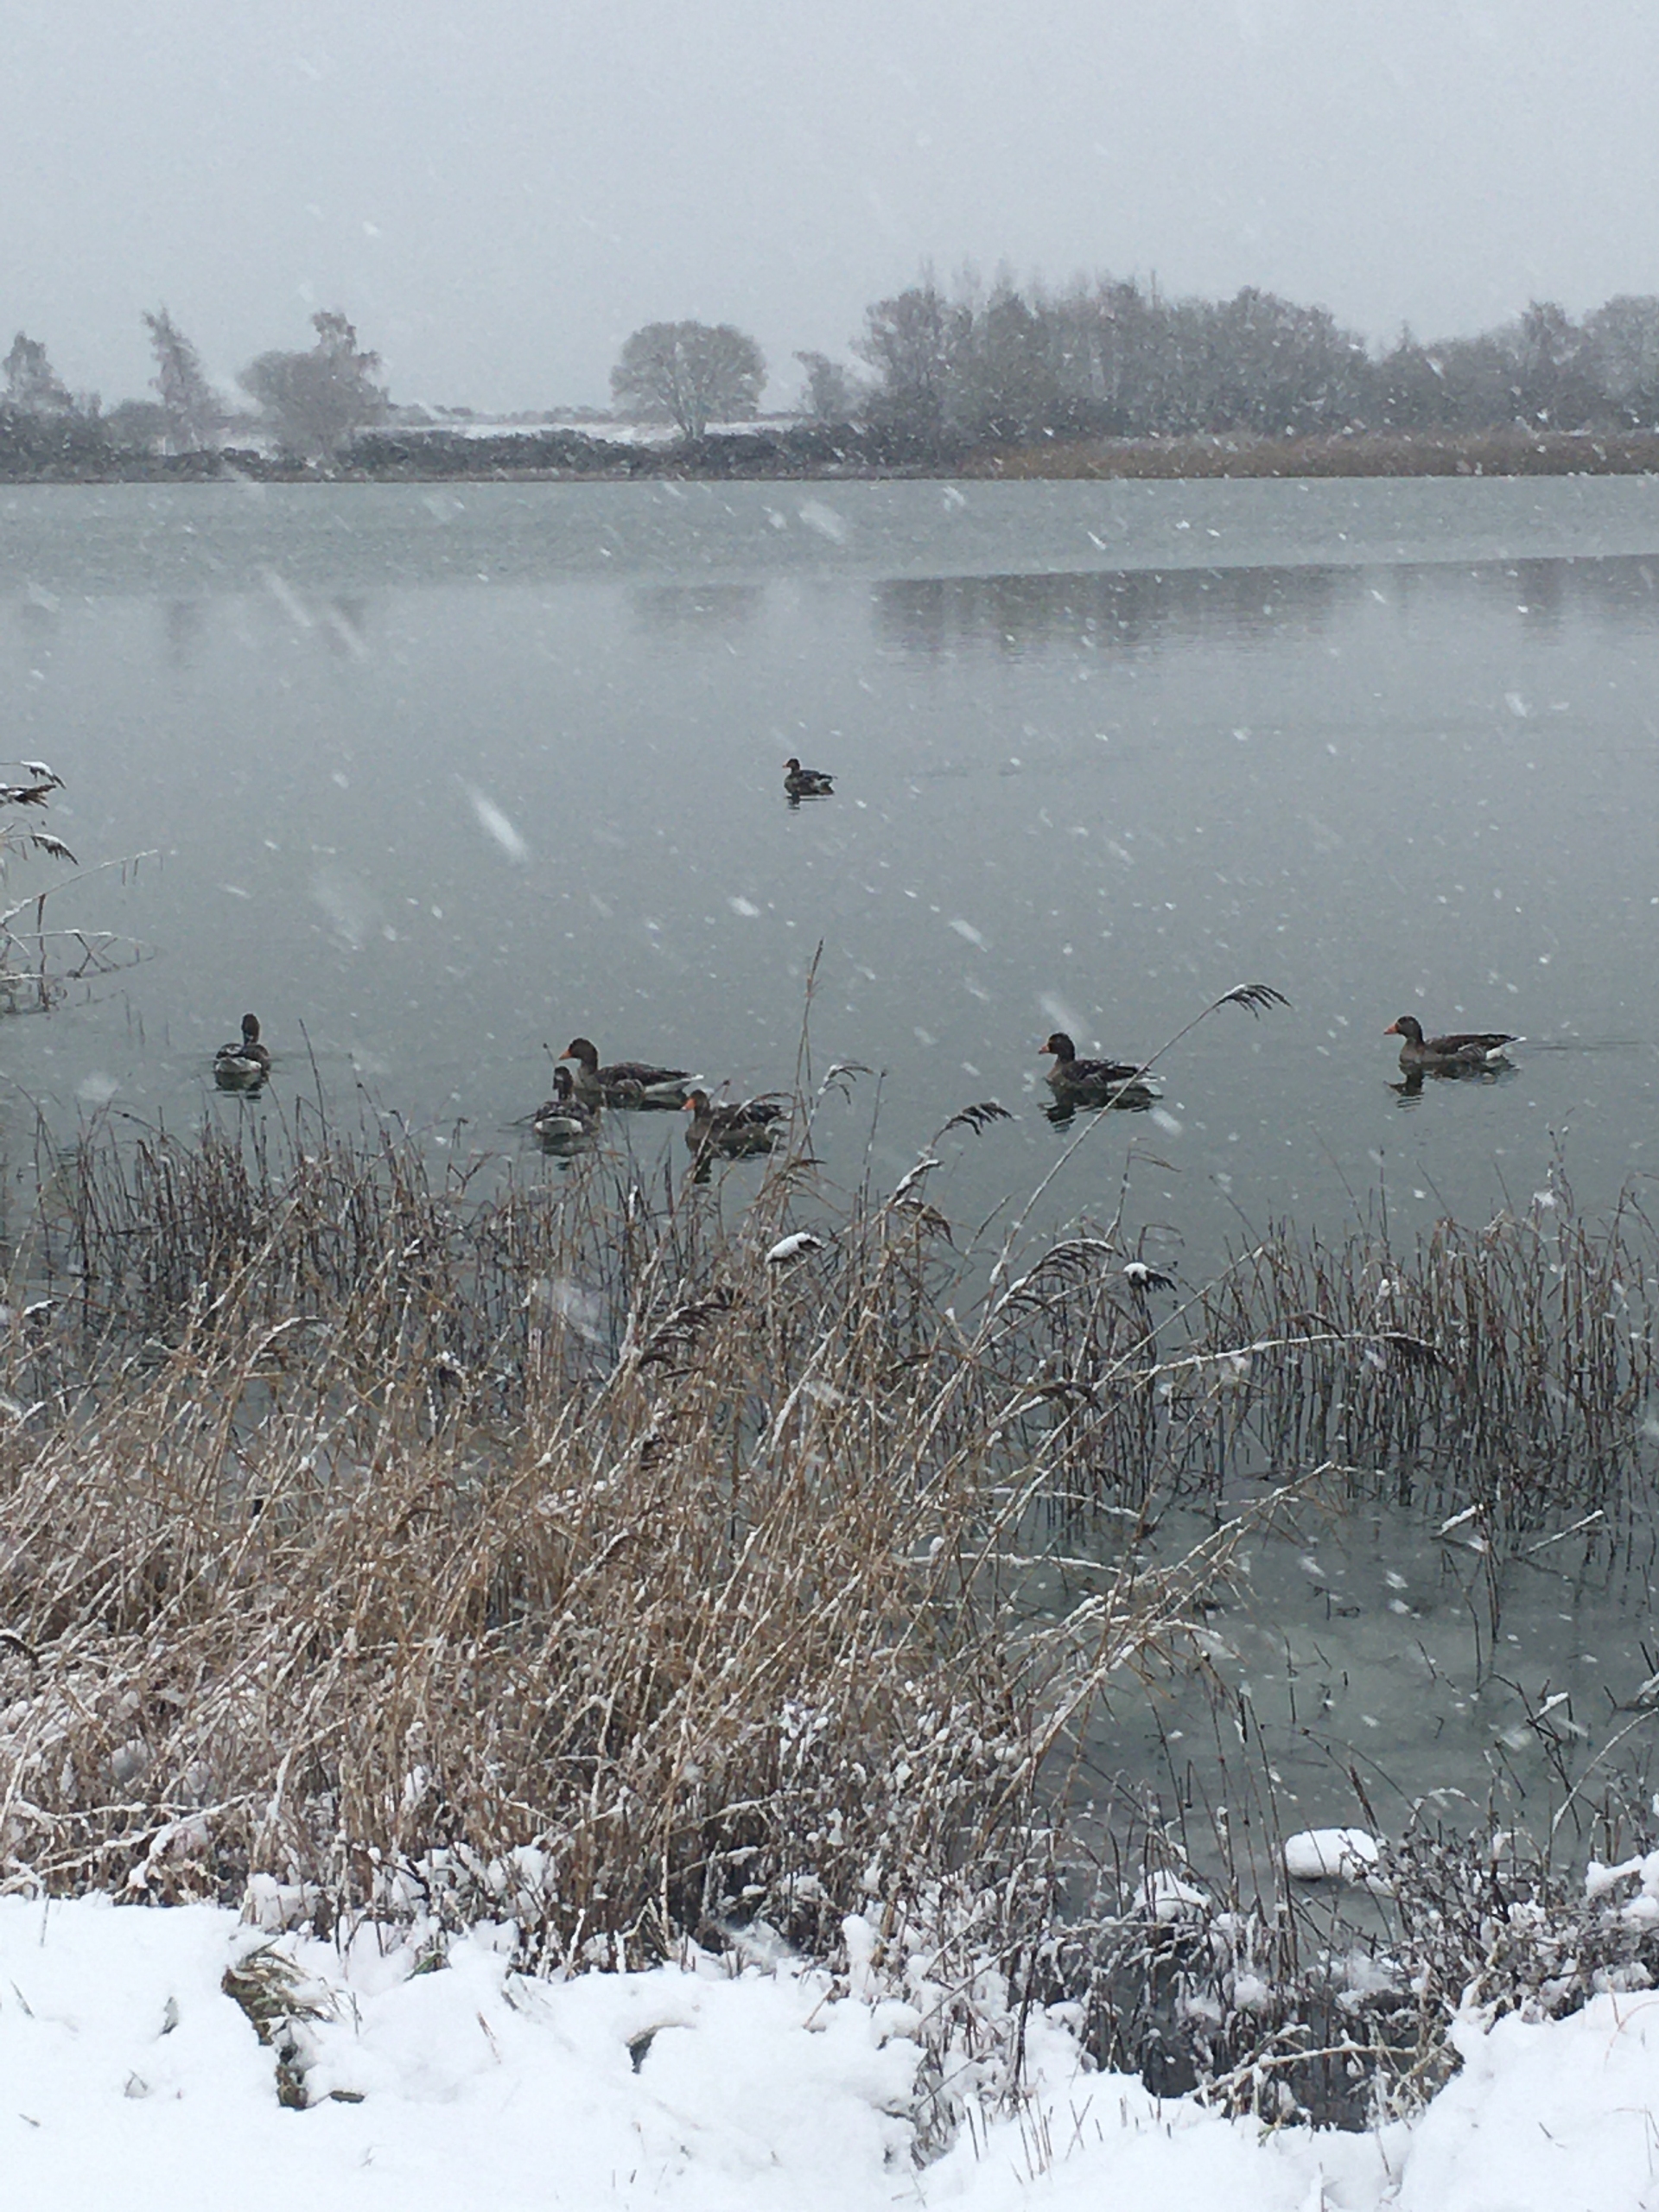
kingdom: Animalia
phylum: Chordata
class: Aves
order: Anseriformes
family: Anatidae
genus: Anser
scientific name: Anser anser
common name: Grågås
